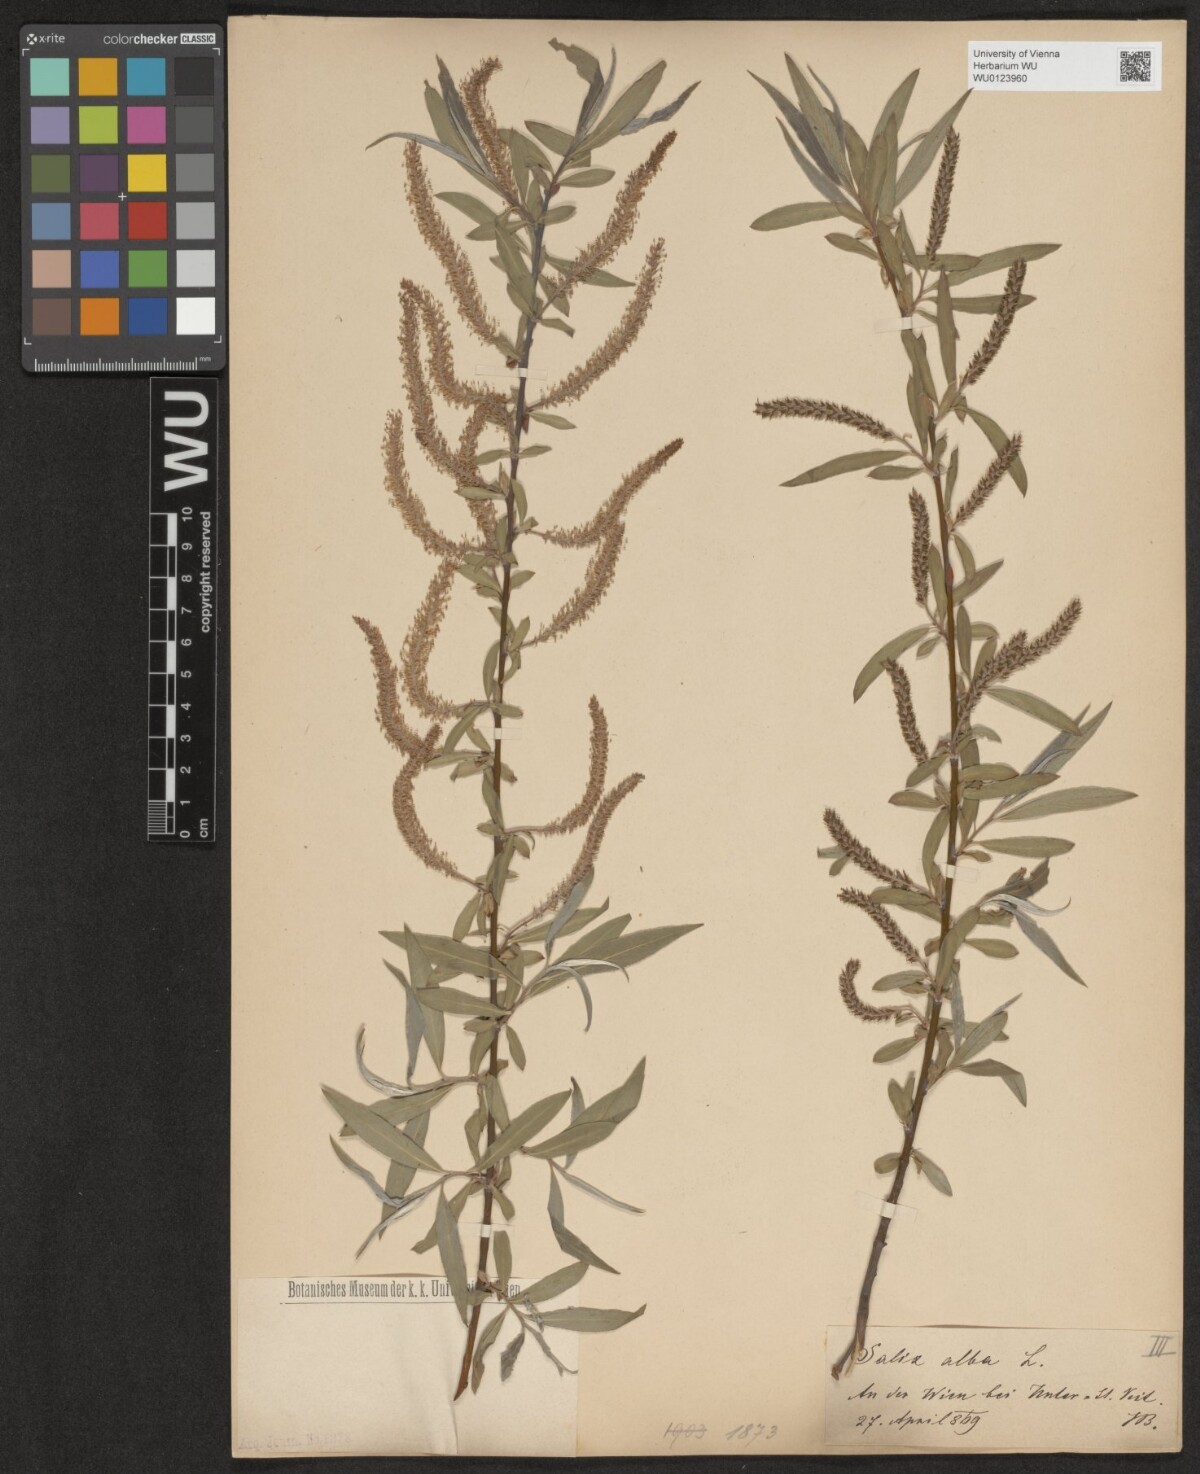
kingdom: Plantae
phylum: Tracheophyta
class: Magnoliopsida
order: Malpighiales
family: Salicaceae
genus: Salix
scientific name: Salix alba
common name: White willow
